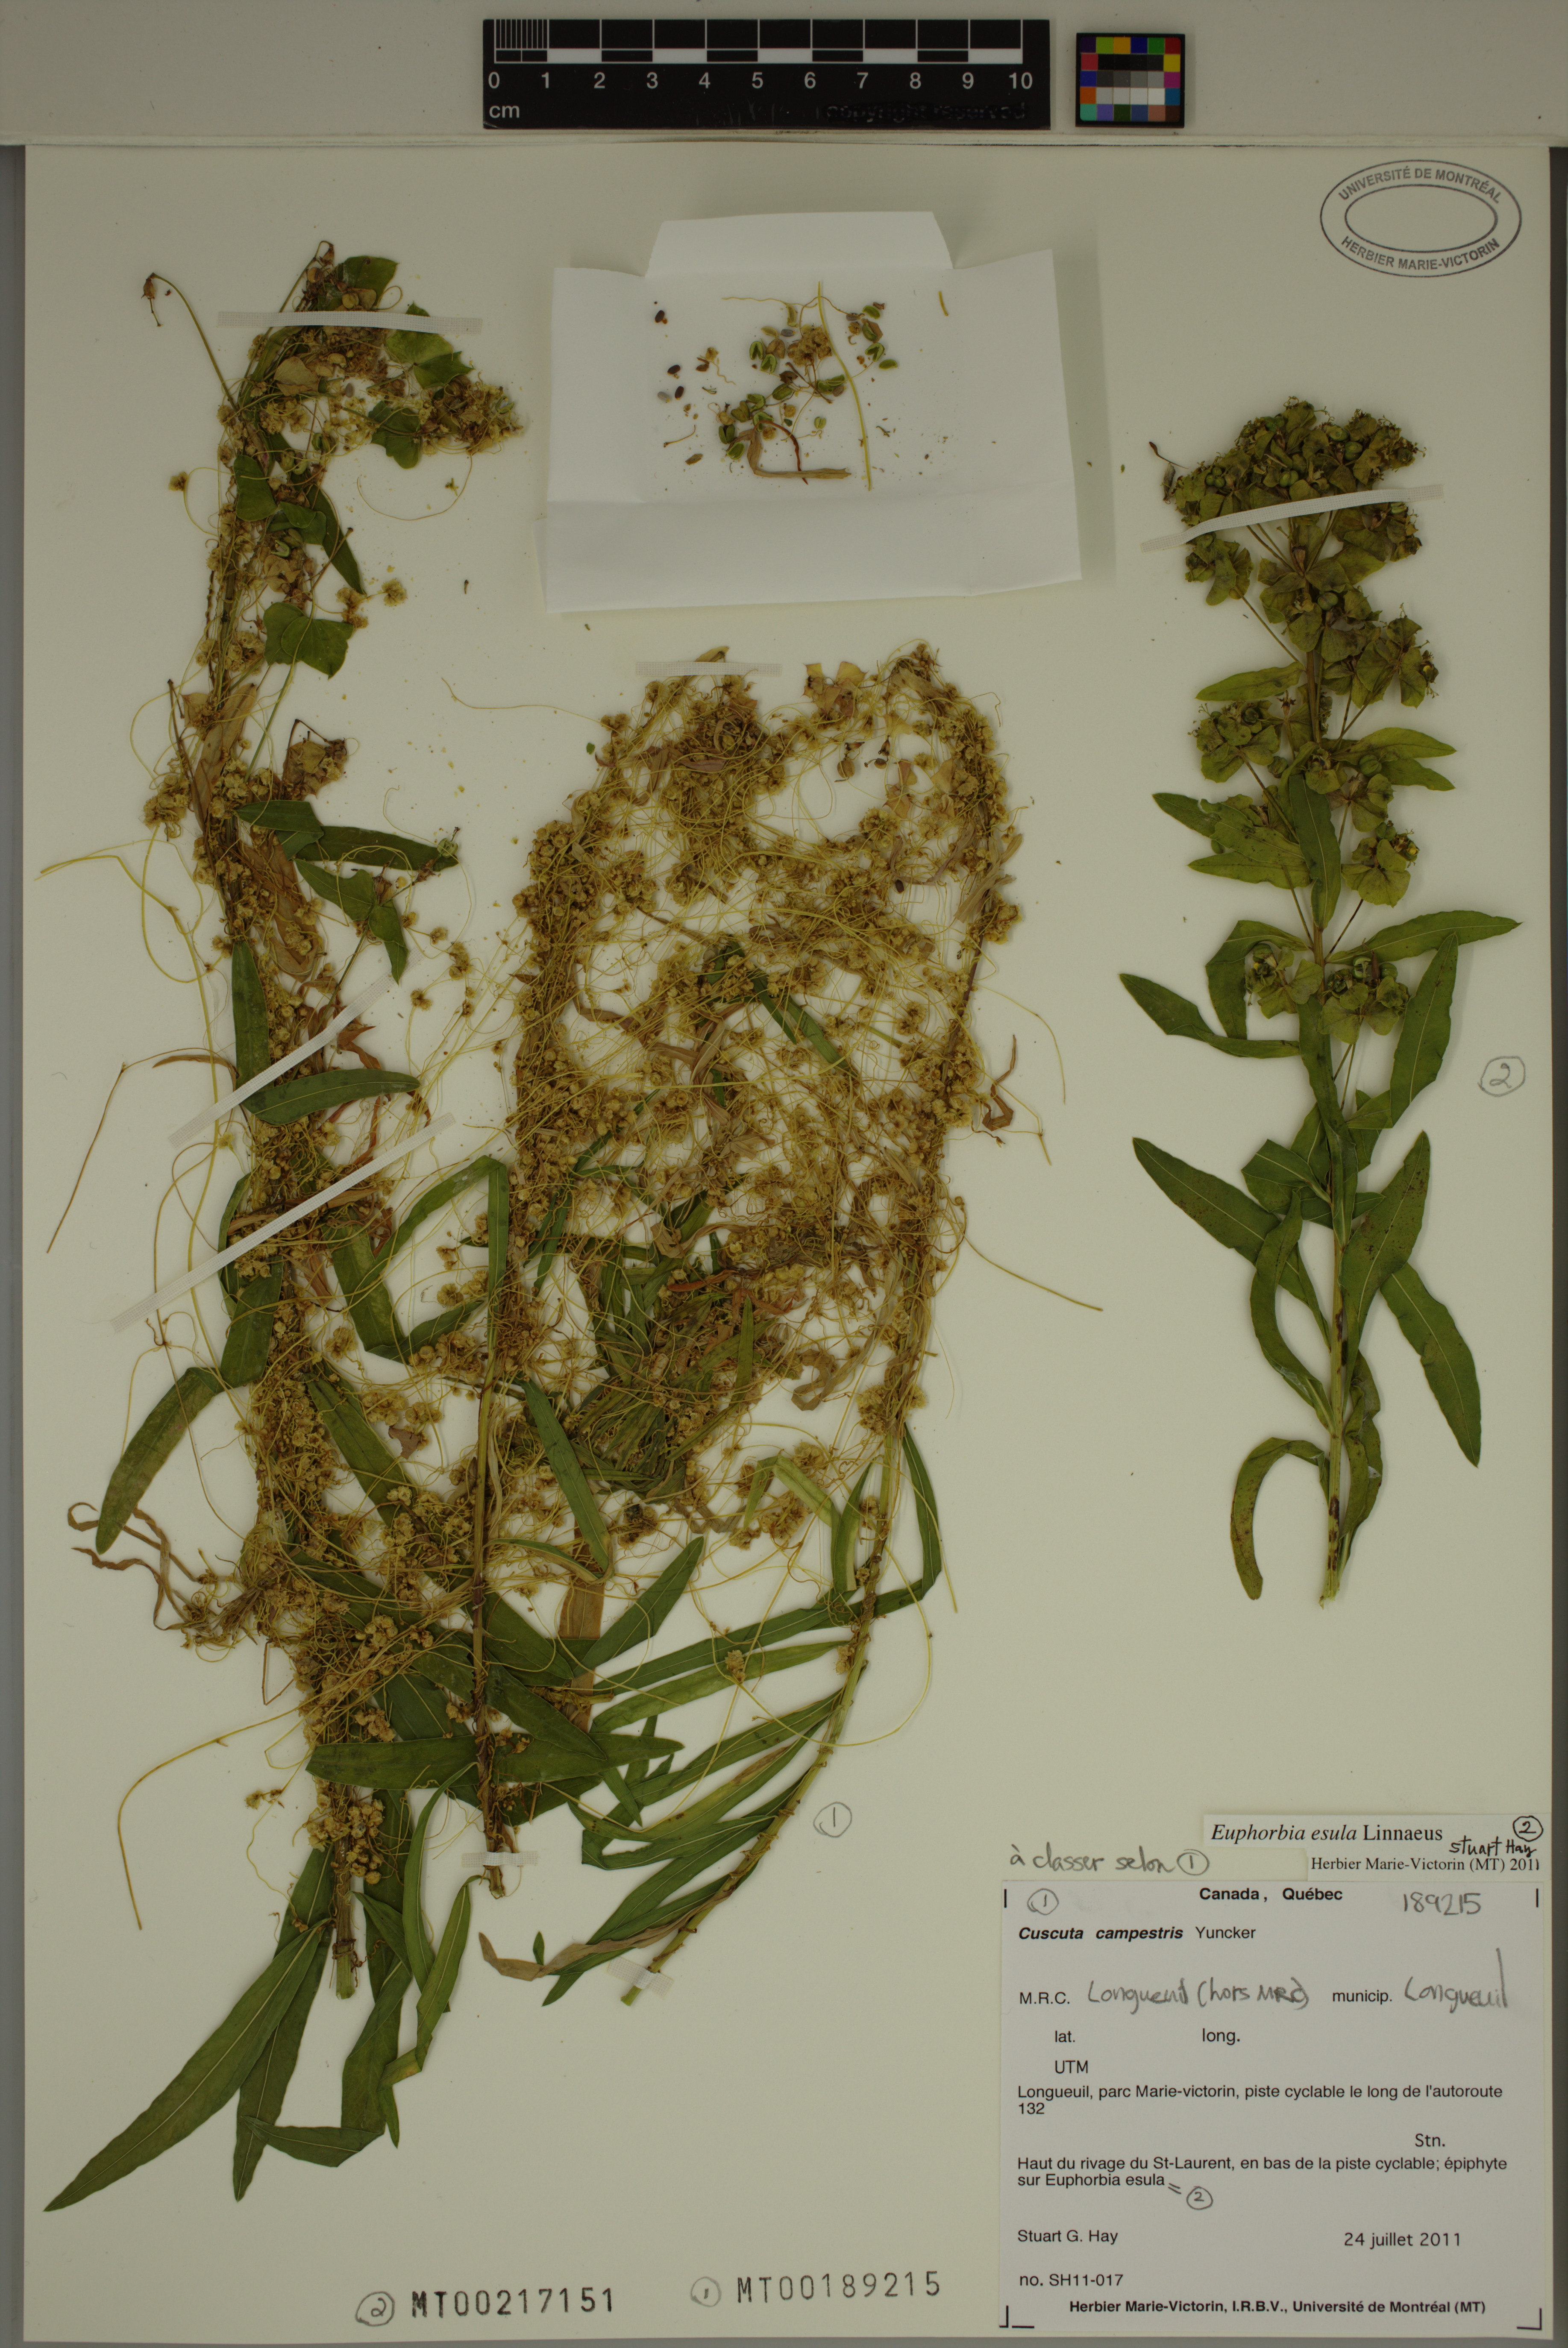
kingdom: Plantae
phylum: Tracheophyta
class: Magnoliopsida
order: Malpighiales
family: Euphorbiaceae
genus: Euphorbia
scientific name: Euphorbia esula
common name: Leafy spurge
